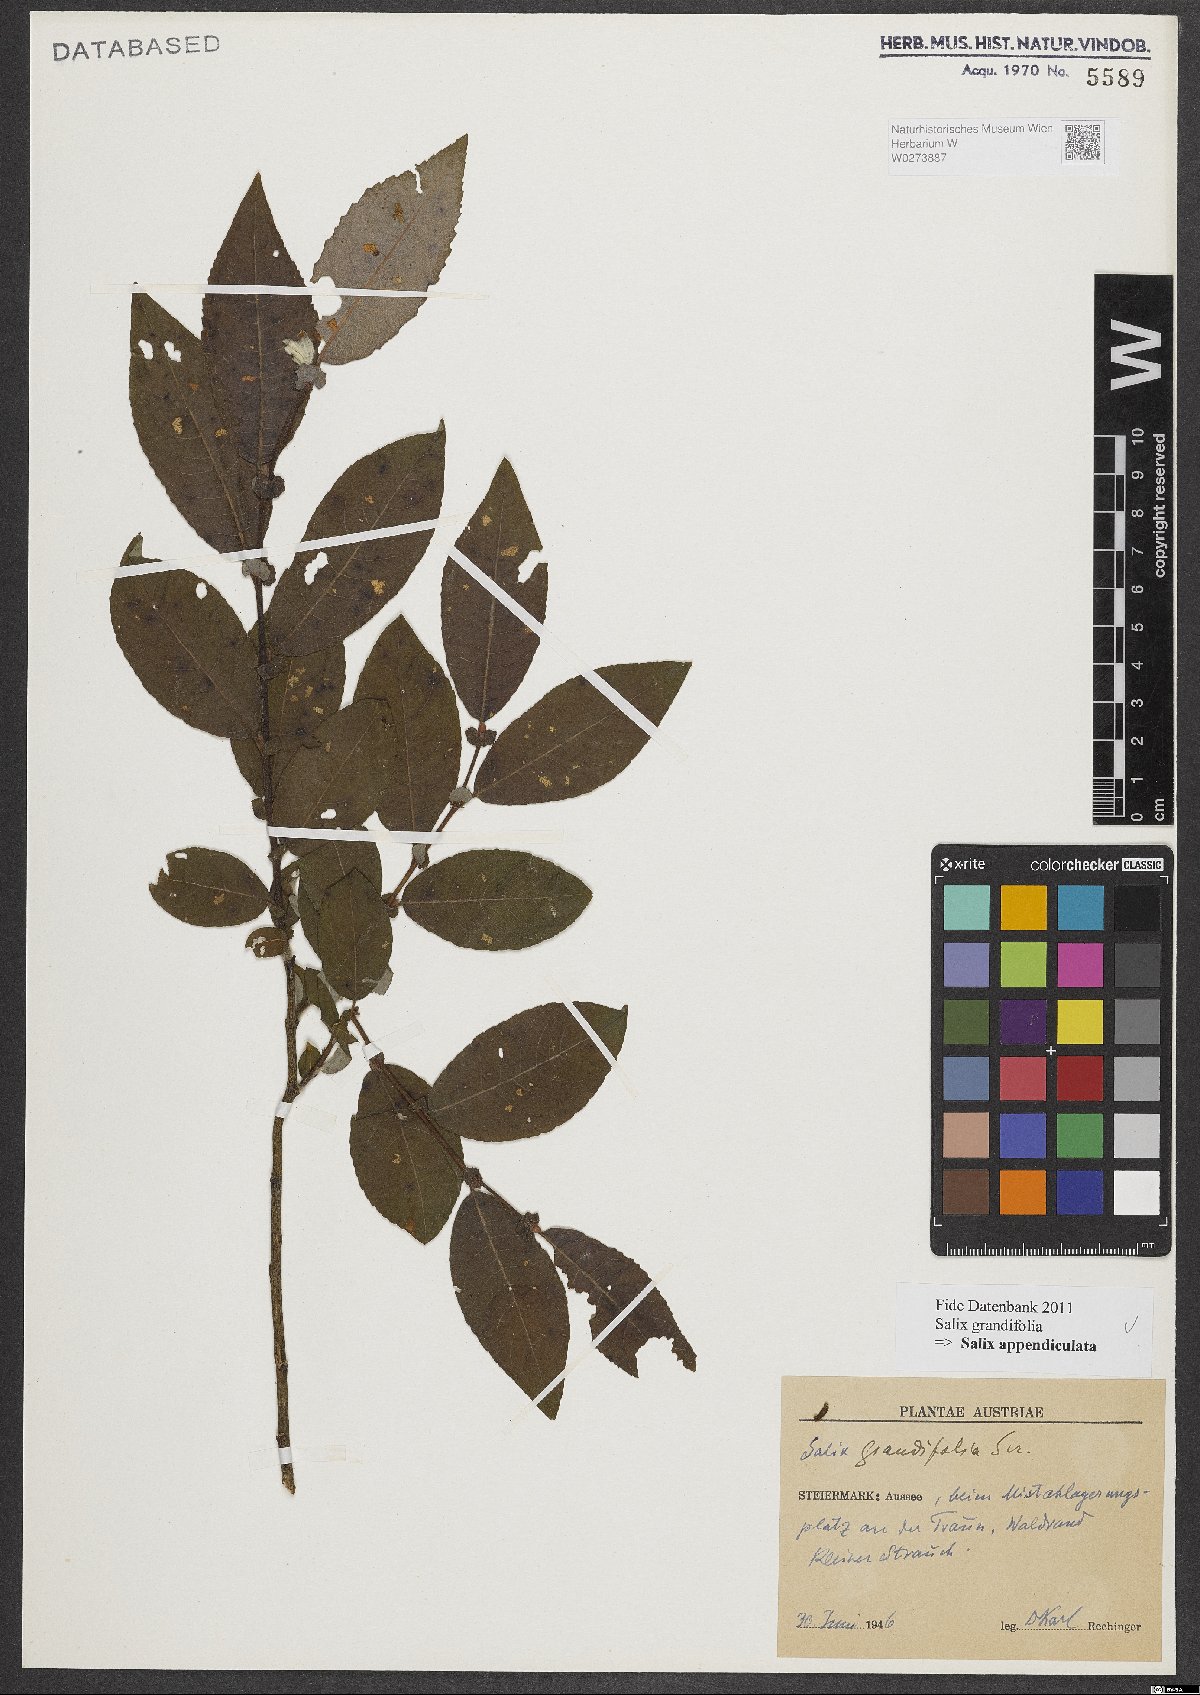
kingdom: Plantae
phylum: Tracheophyta
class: Magnoliopsida
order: Malpighiales
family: Salicaceae
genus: Salix
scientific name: Salix appendiculata
